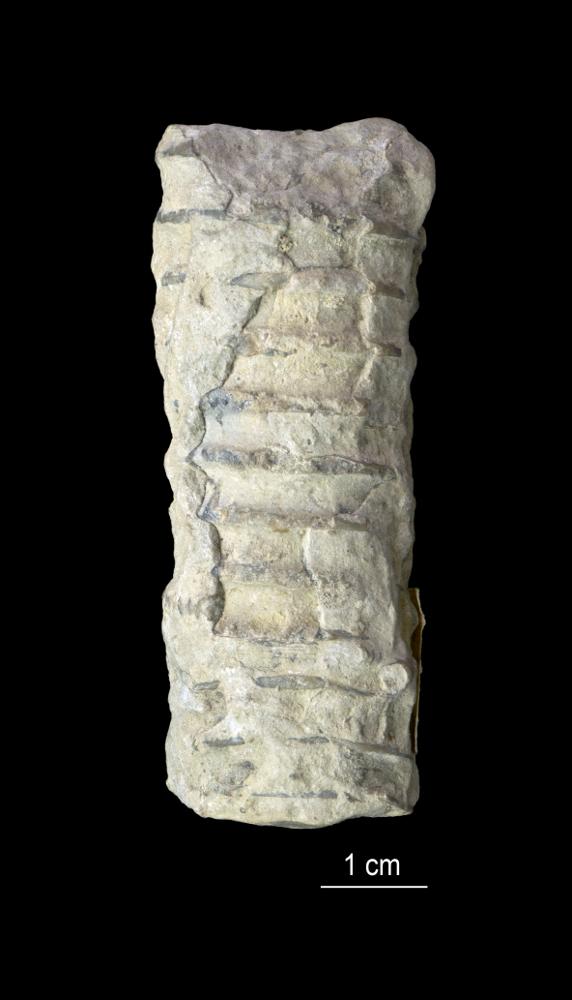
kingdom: Animalia
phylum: Mollusca
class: Cephalopoda
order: Nautilida
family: Nautilidae
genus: Dawsonoceras
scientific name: Dawsonoceras
